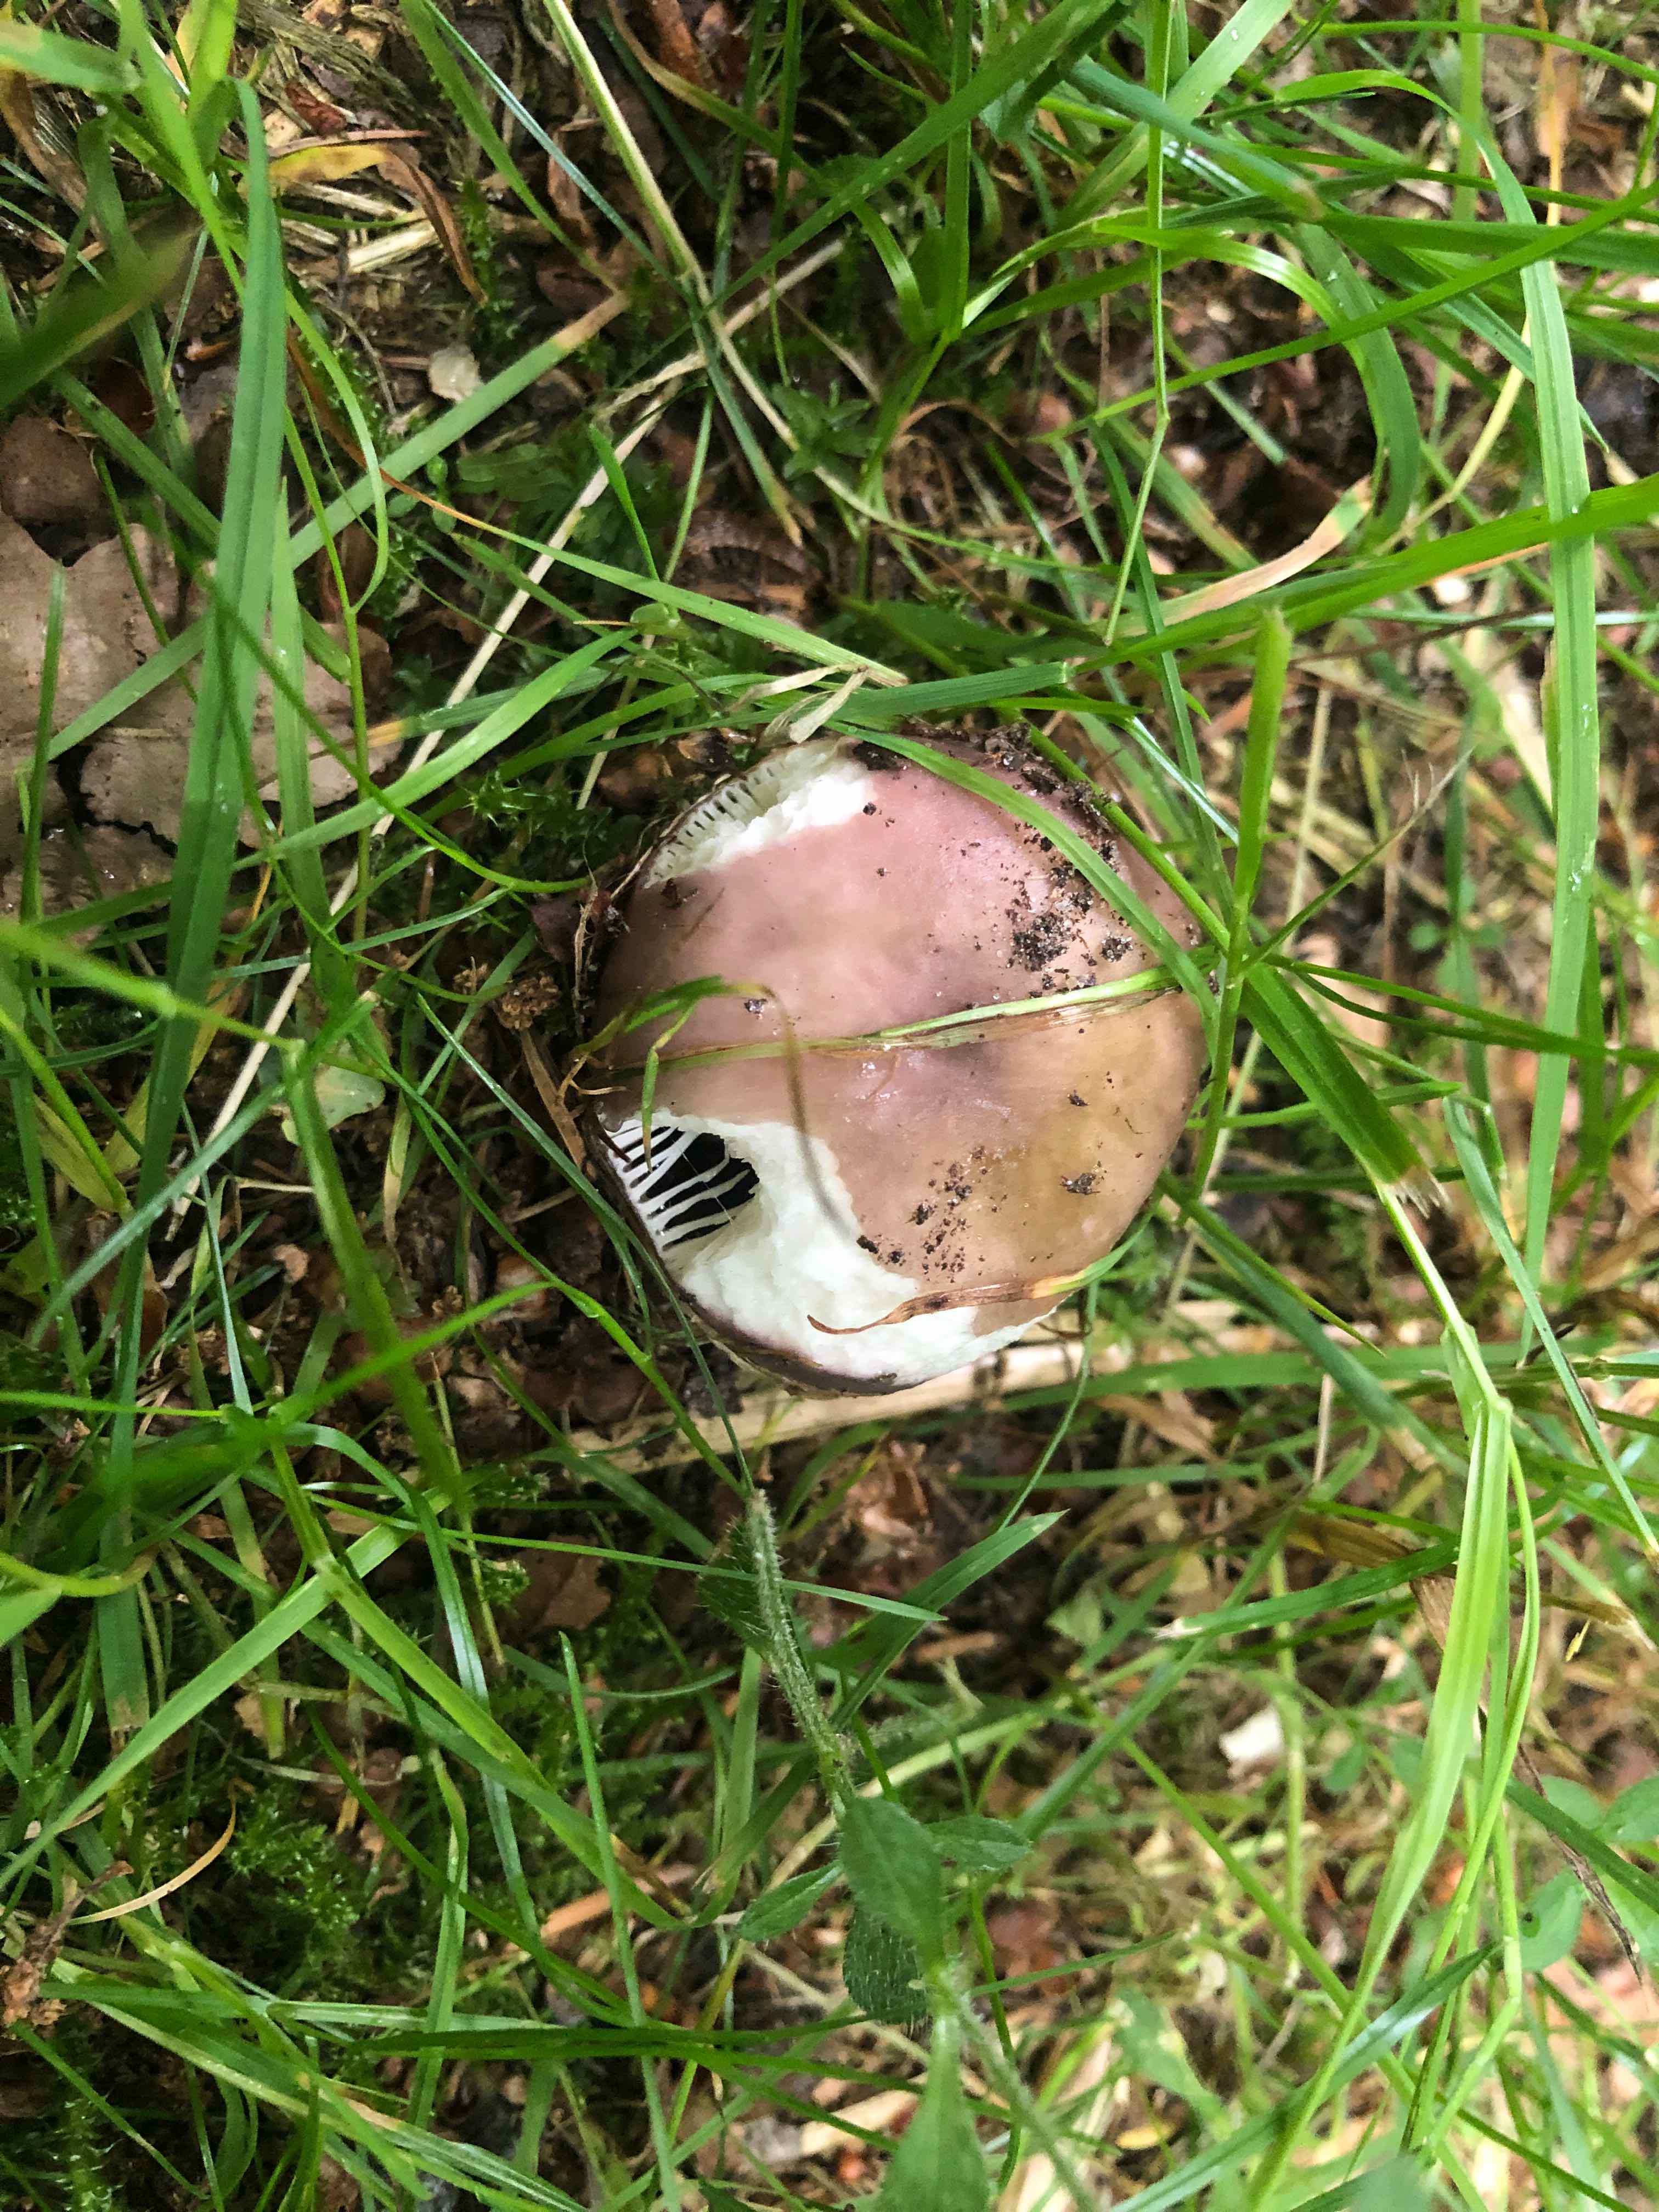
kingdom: Fungi
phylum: Basidiomycota
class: Agaricomycetes
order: Russulales
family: Russulaceae
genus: Russula
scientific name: Russula cyanoxantha
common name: broget skørhat
